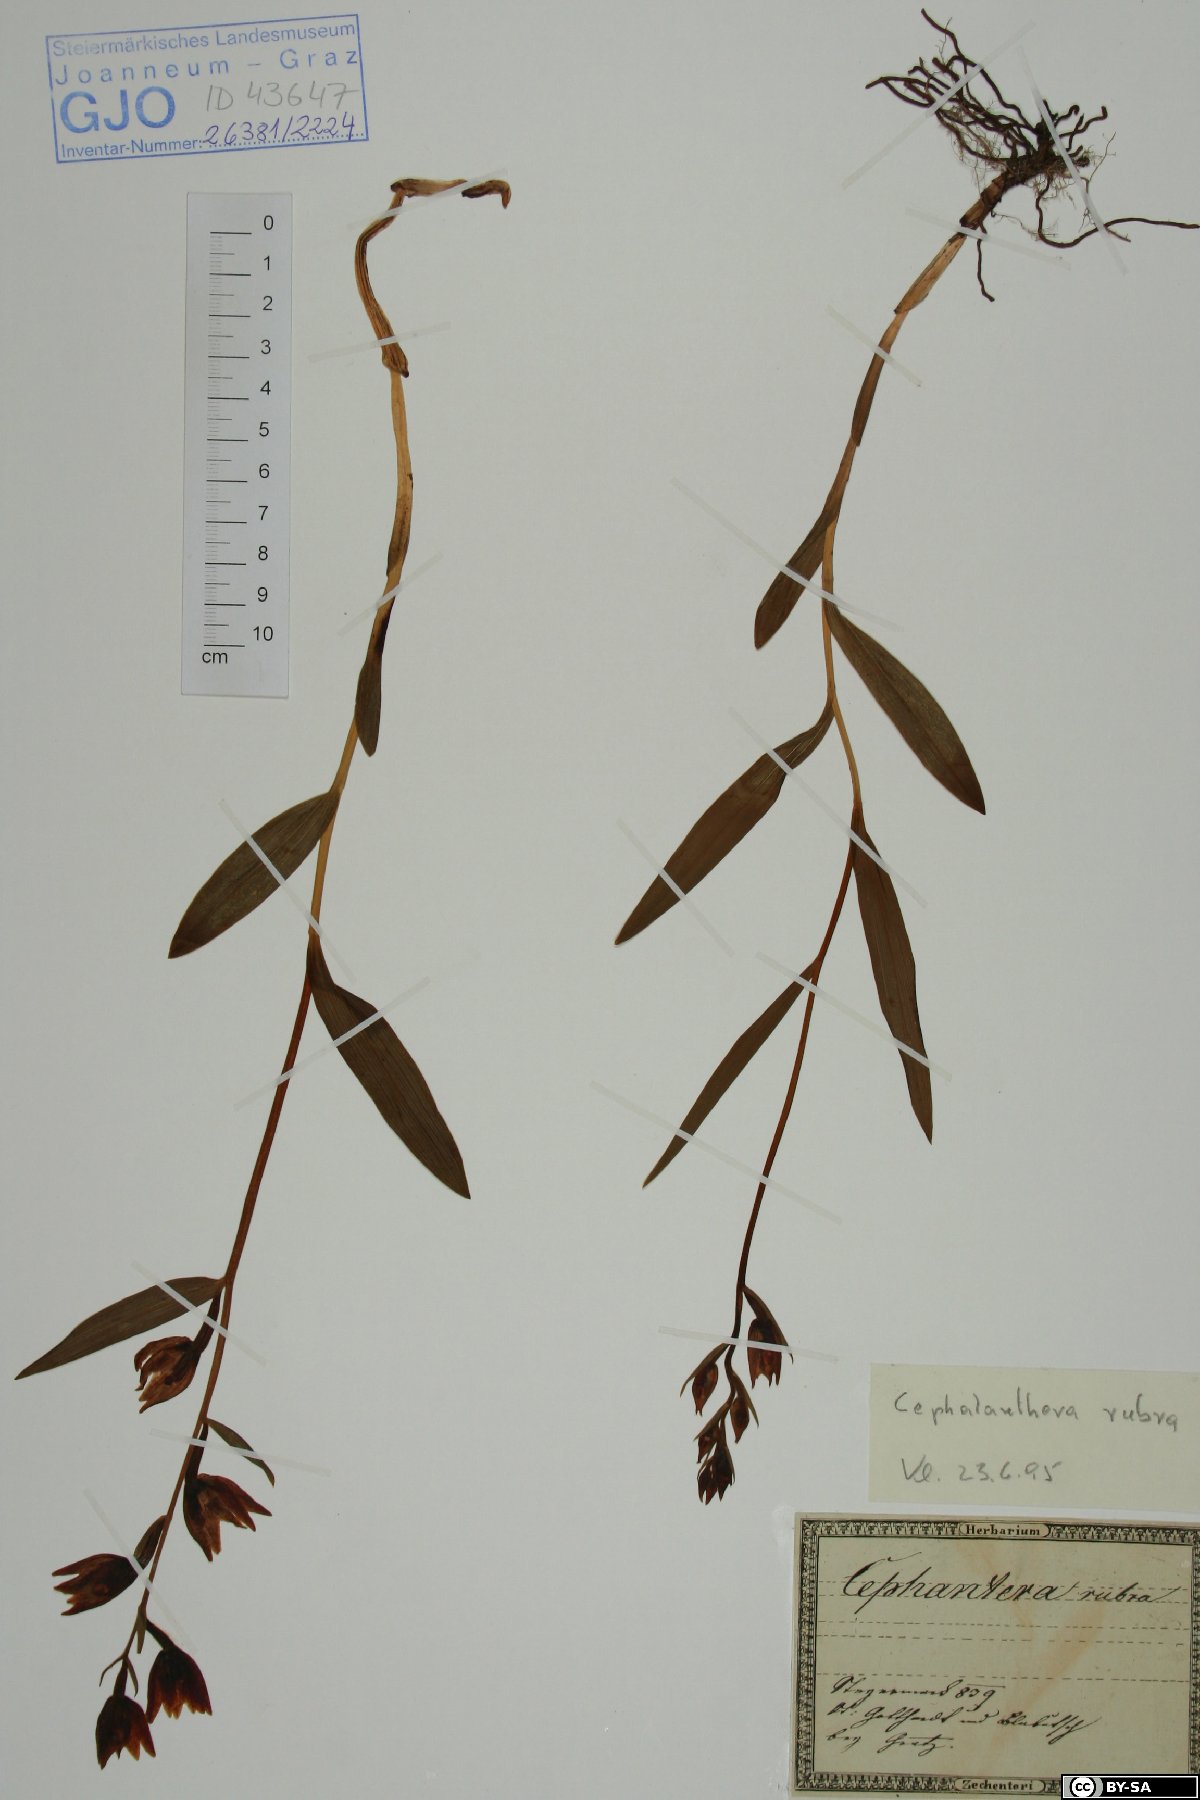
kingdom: Plantae
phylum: Tracheophyta
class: Liliopsida
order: Asparagales
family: Orchidaceae
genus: Cephalanthera
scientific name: Cephalanthera rubra
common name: Red helleborine
